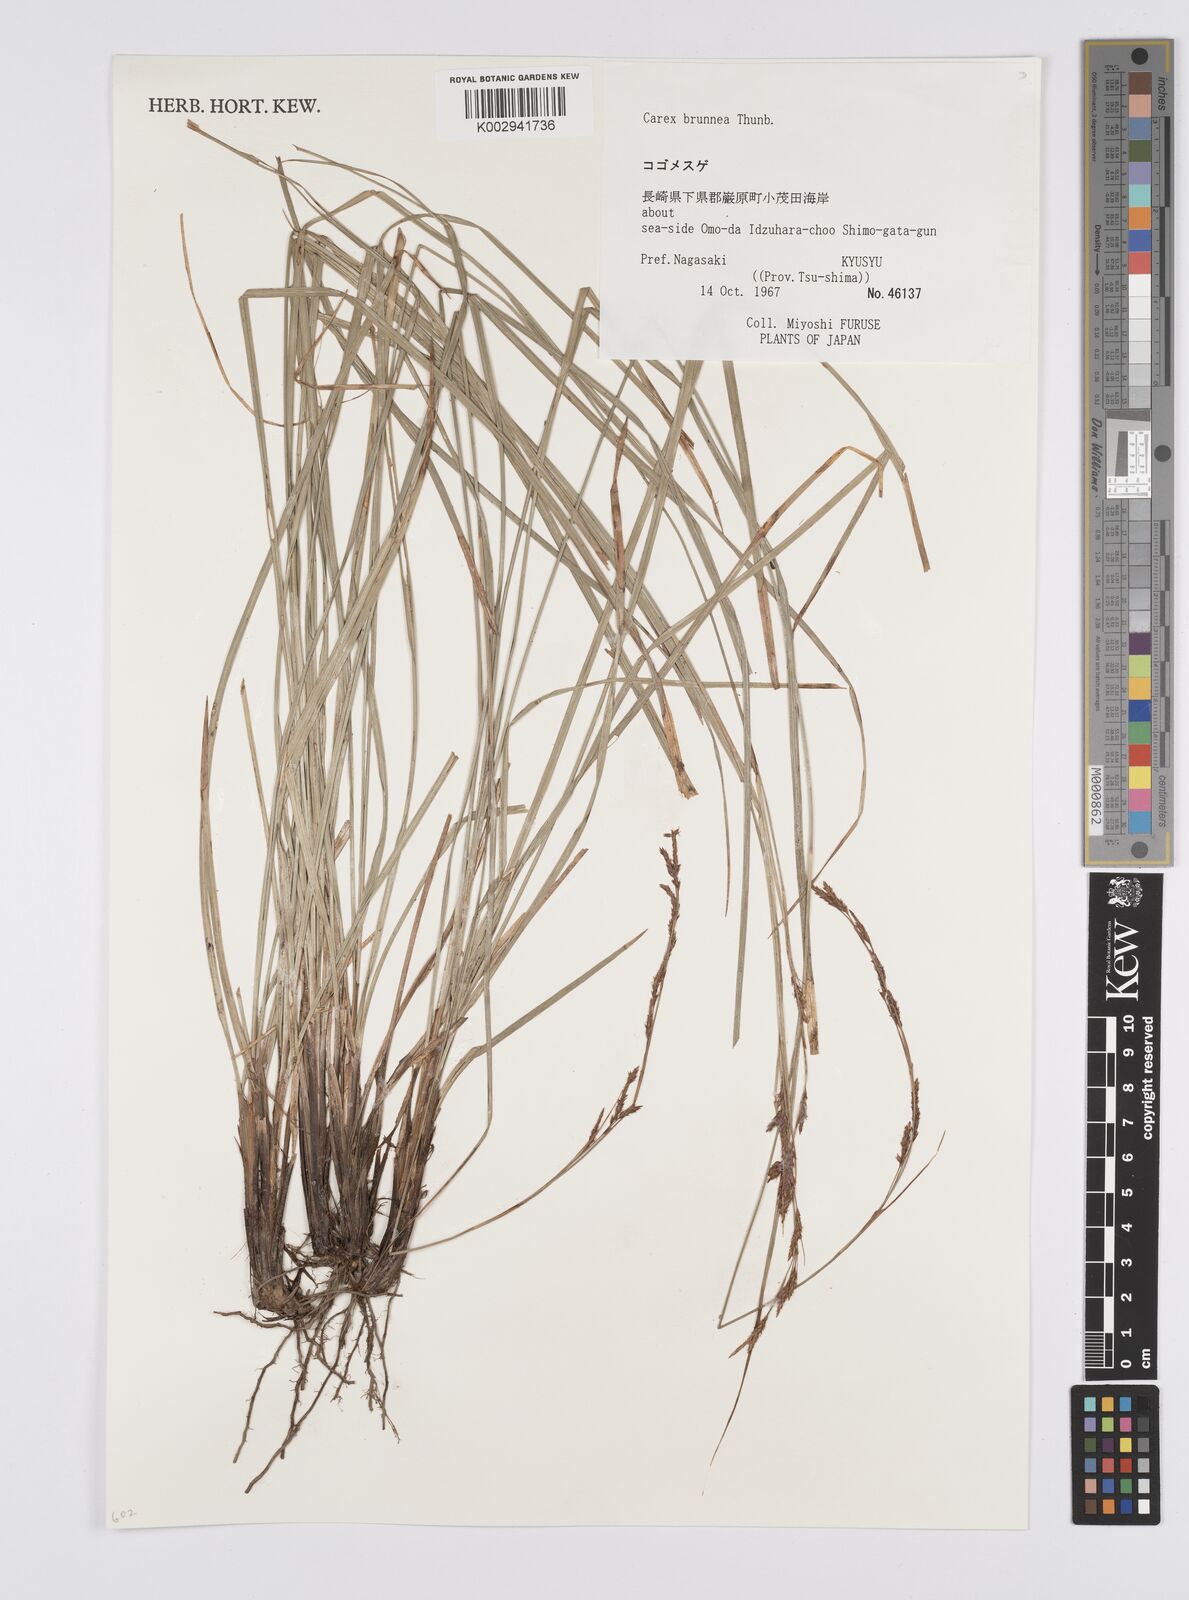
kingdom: Plantae
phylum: Tracheophyta
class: Liliopsida
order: Poales
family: Cyperaceae
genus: Carex
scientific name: Carex brunnea
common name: Greater brown sedge
